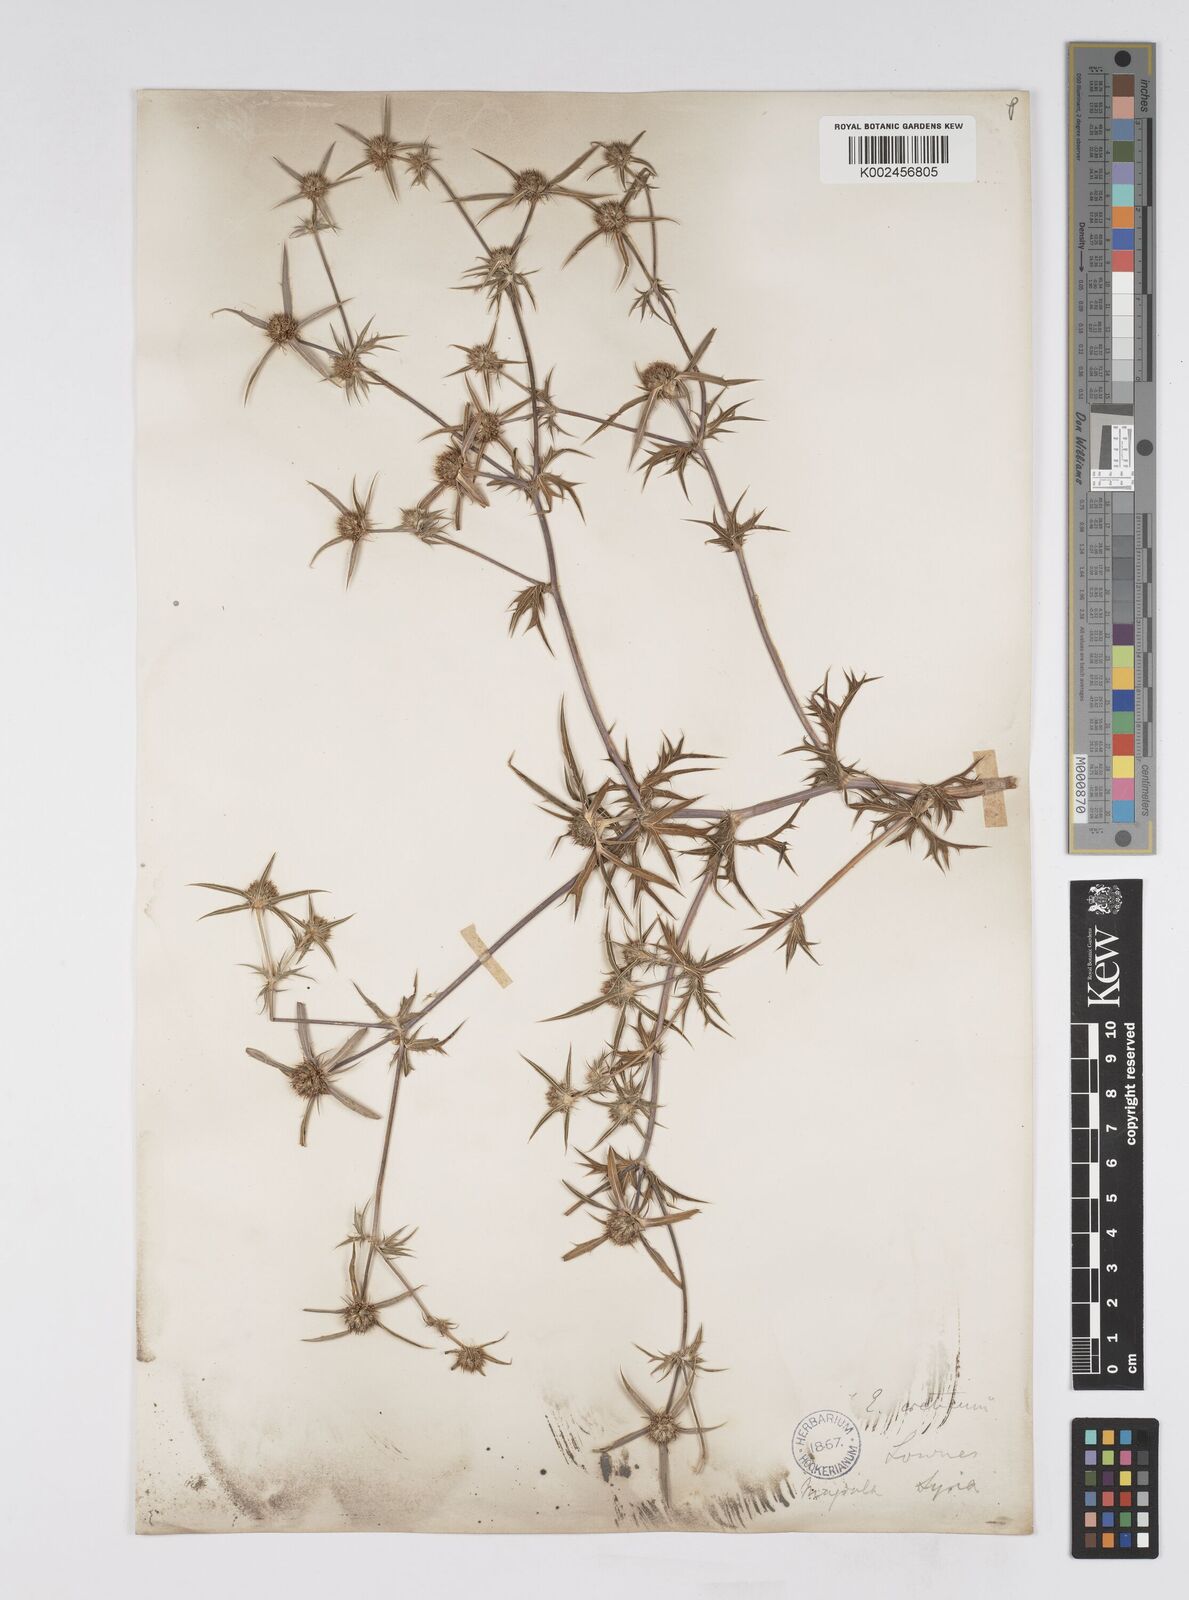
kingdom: Plantae
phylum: Tracheophyta
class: Magnoliopsida
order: Apiales
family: Apiaceae
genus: Eryngium
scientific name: Eryngium creticum
